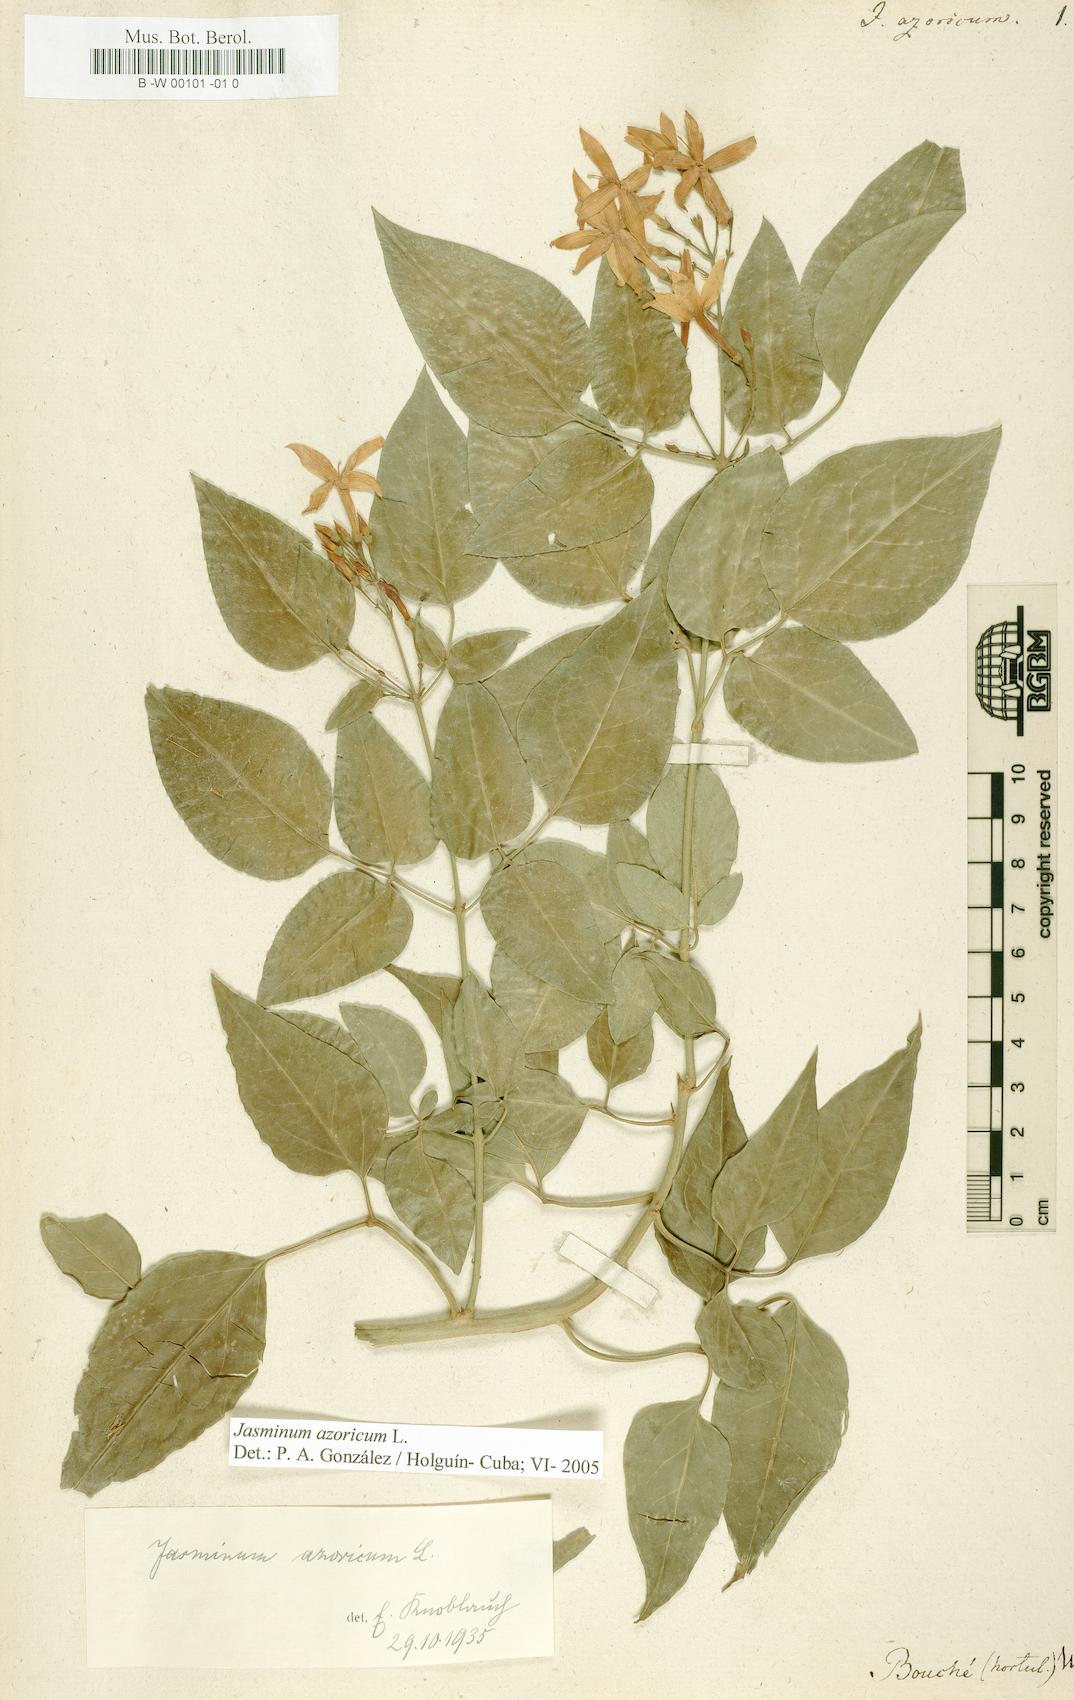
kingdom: Plantae
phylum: Tracheophyta
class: Magnoliopsida
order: Lamiales
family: Oleaceae
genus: Jasminum
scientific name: Jasminum azoricum
